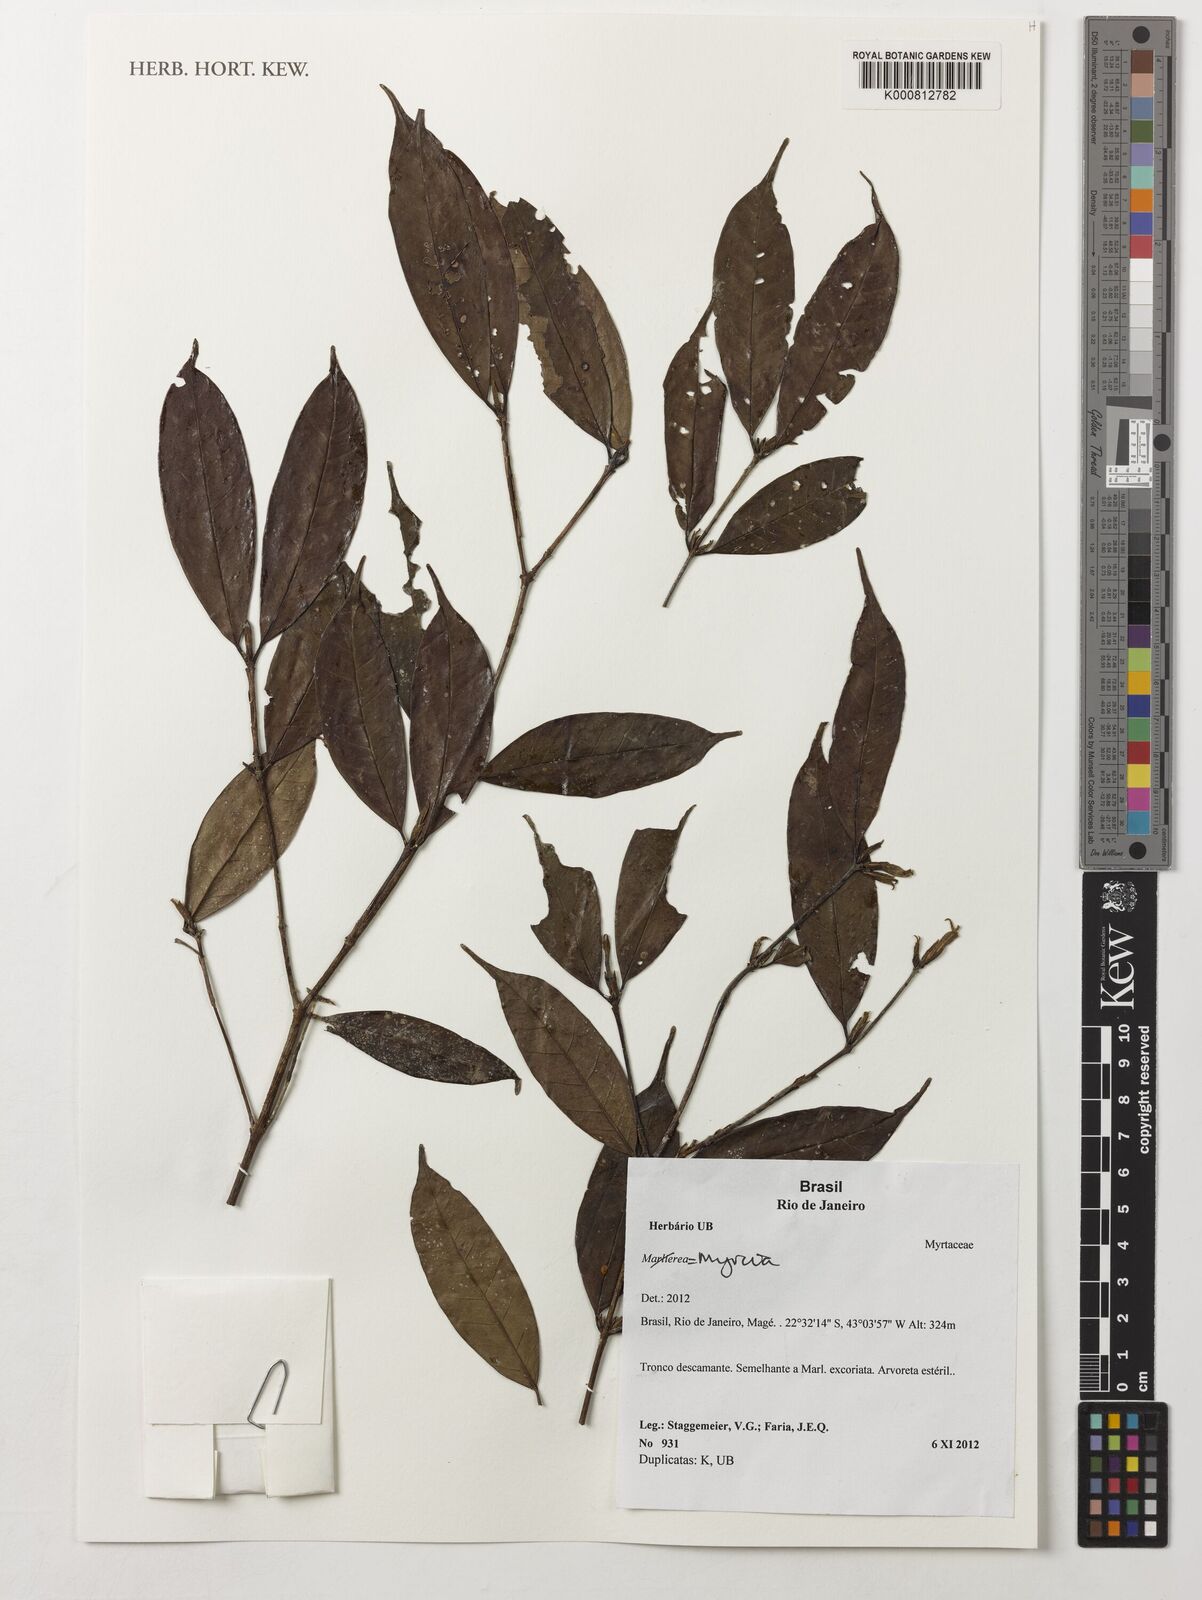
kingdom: Plantae
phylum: Tracheophyta
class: Magnoliopsida
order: Myrtales
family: Myrtaceae
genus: Myrcia
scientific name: Myrcia
